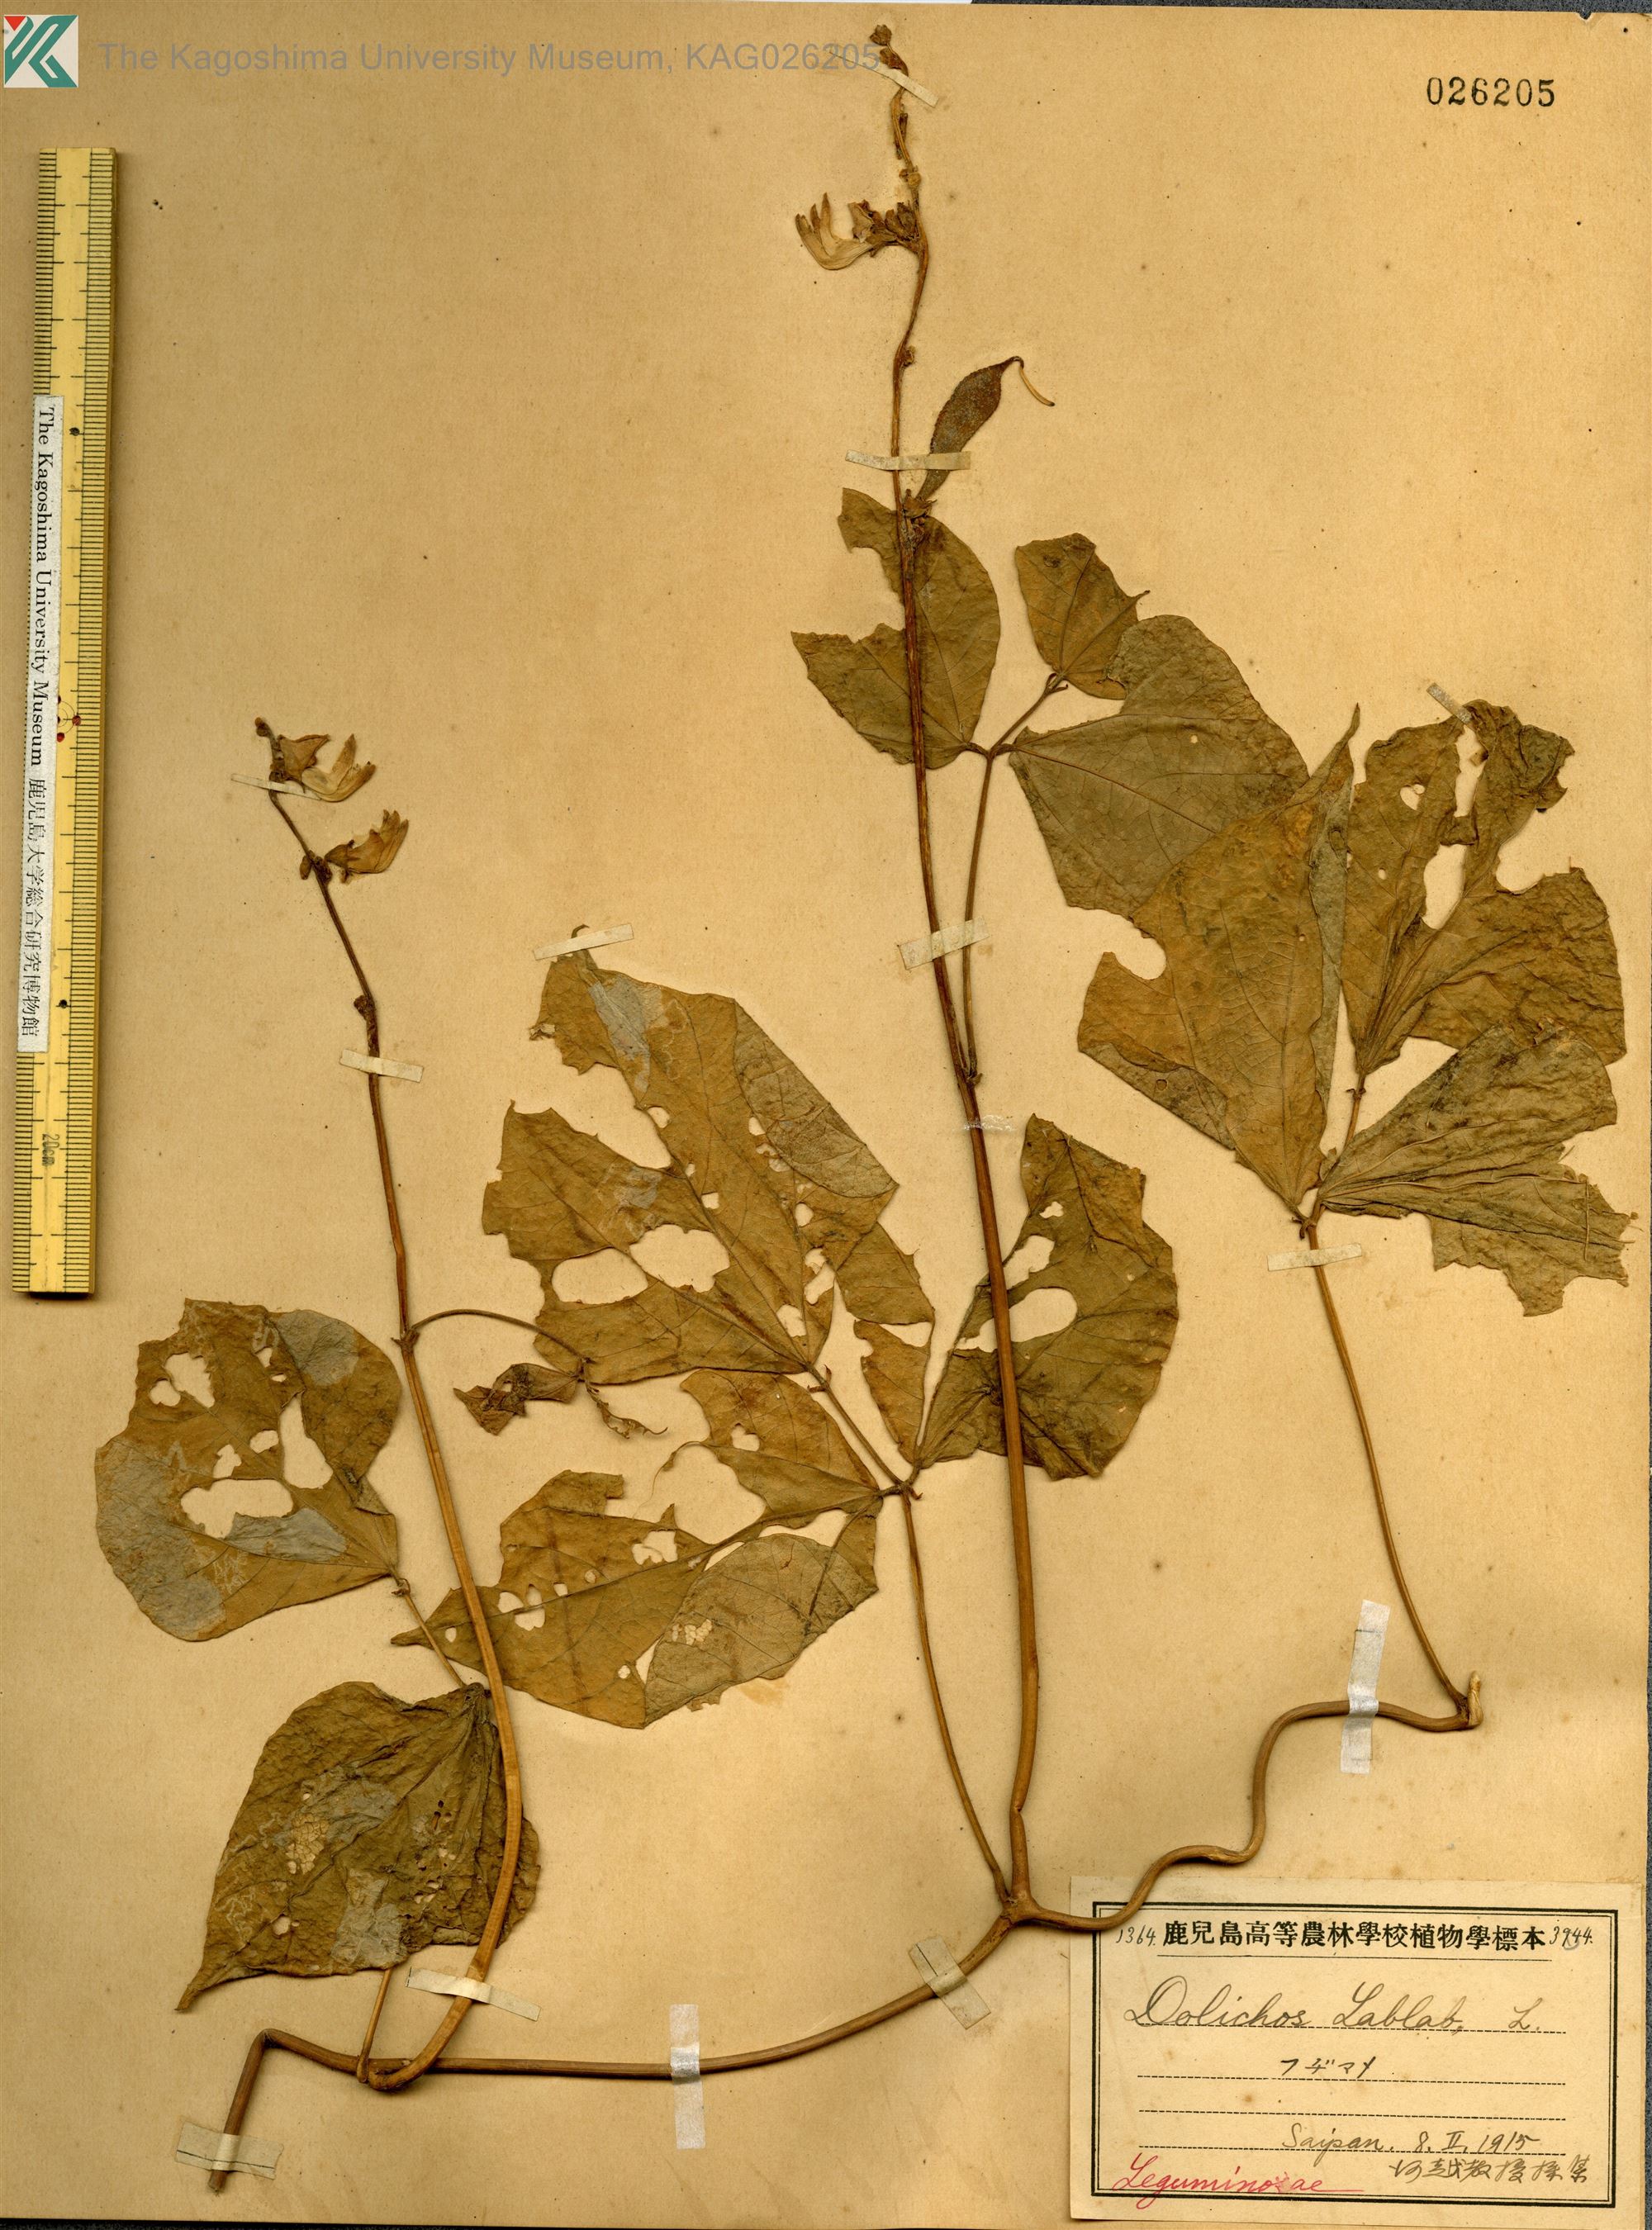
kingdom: Plantae
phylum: Tracheophyta
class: Magnoliopsida
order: Fabales
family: Fabaceae
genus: Lablab
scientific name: Lablab purpureus
